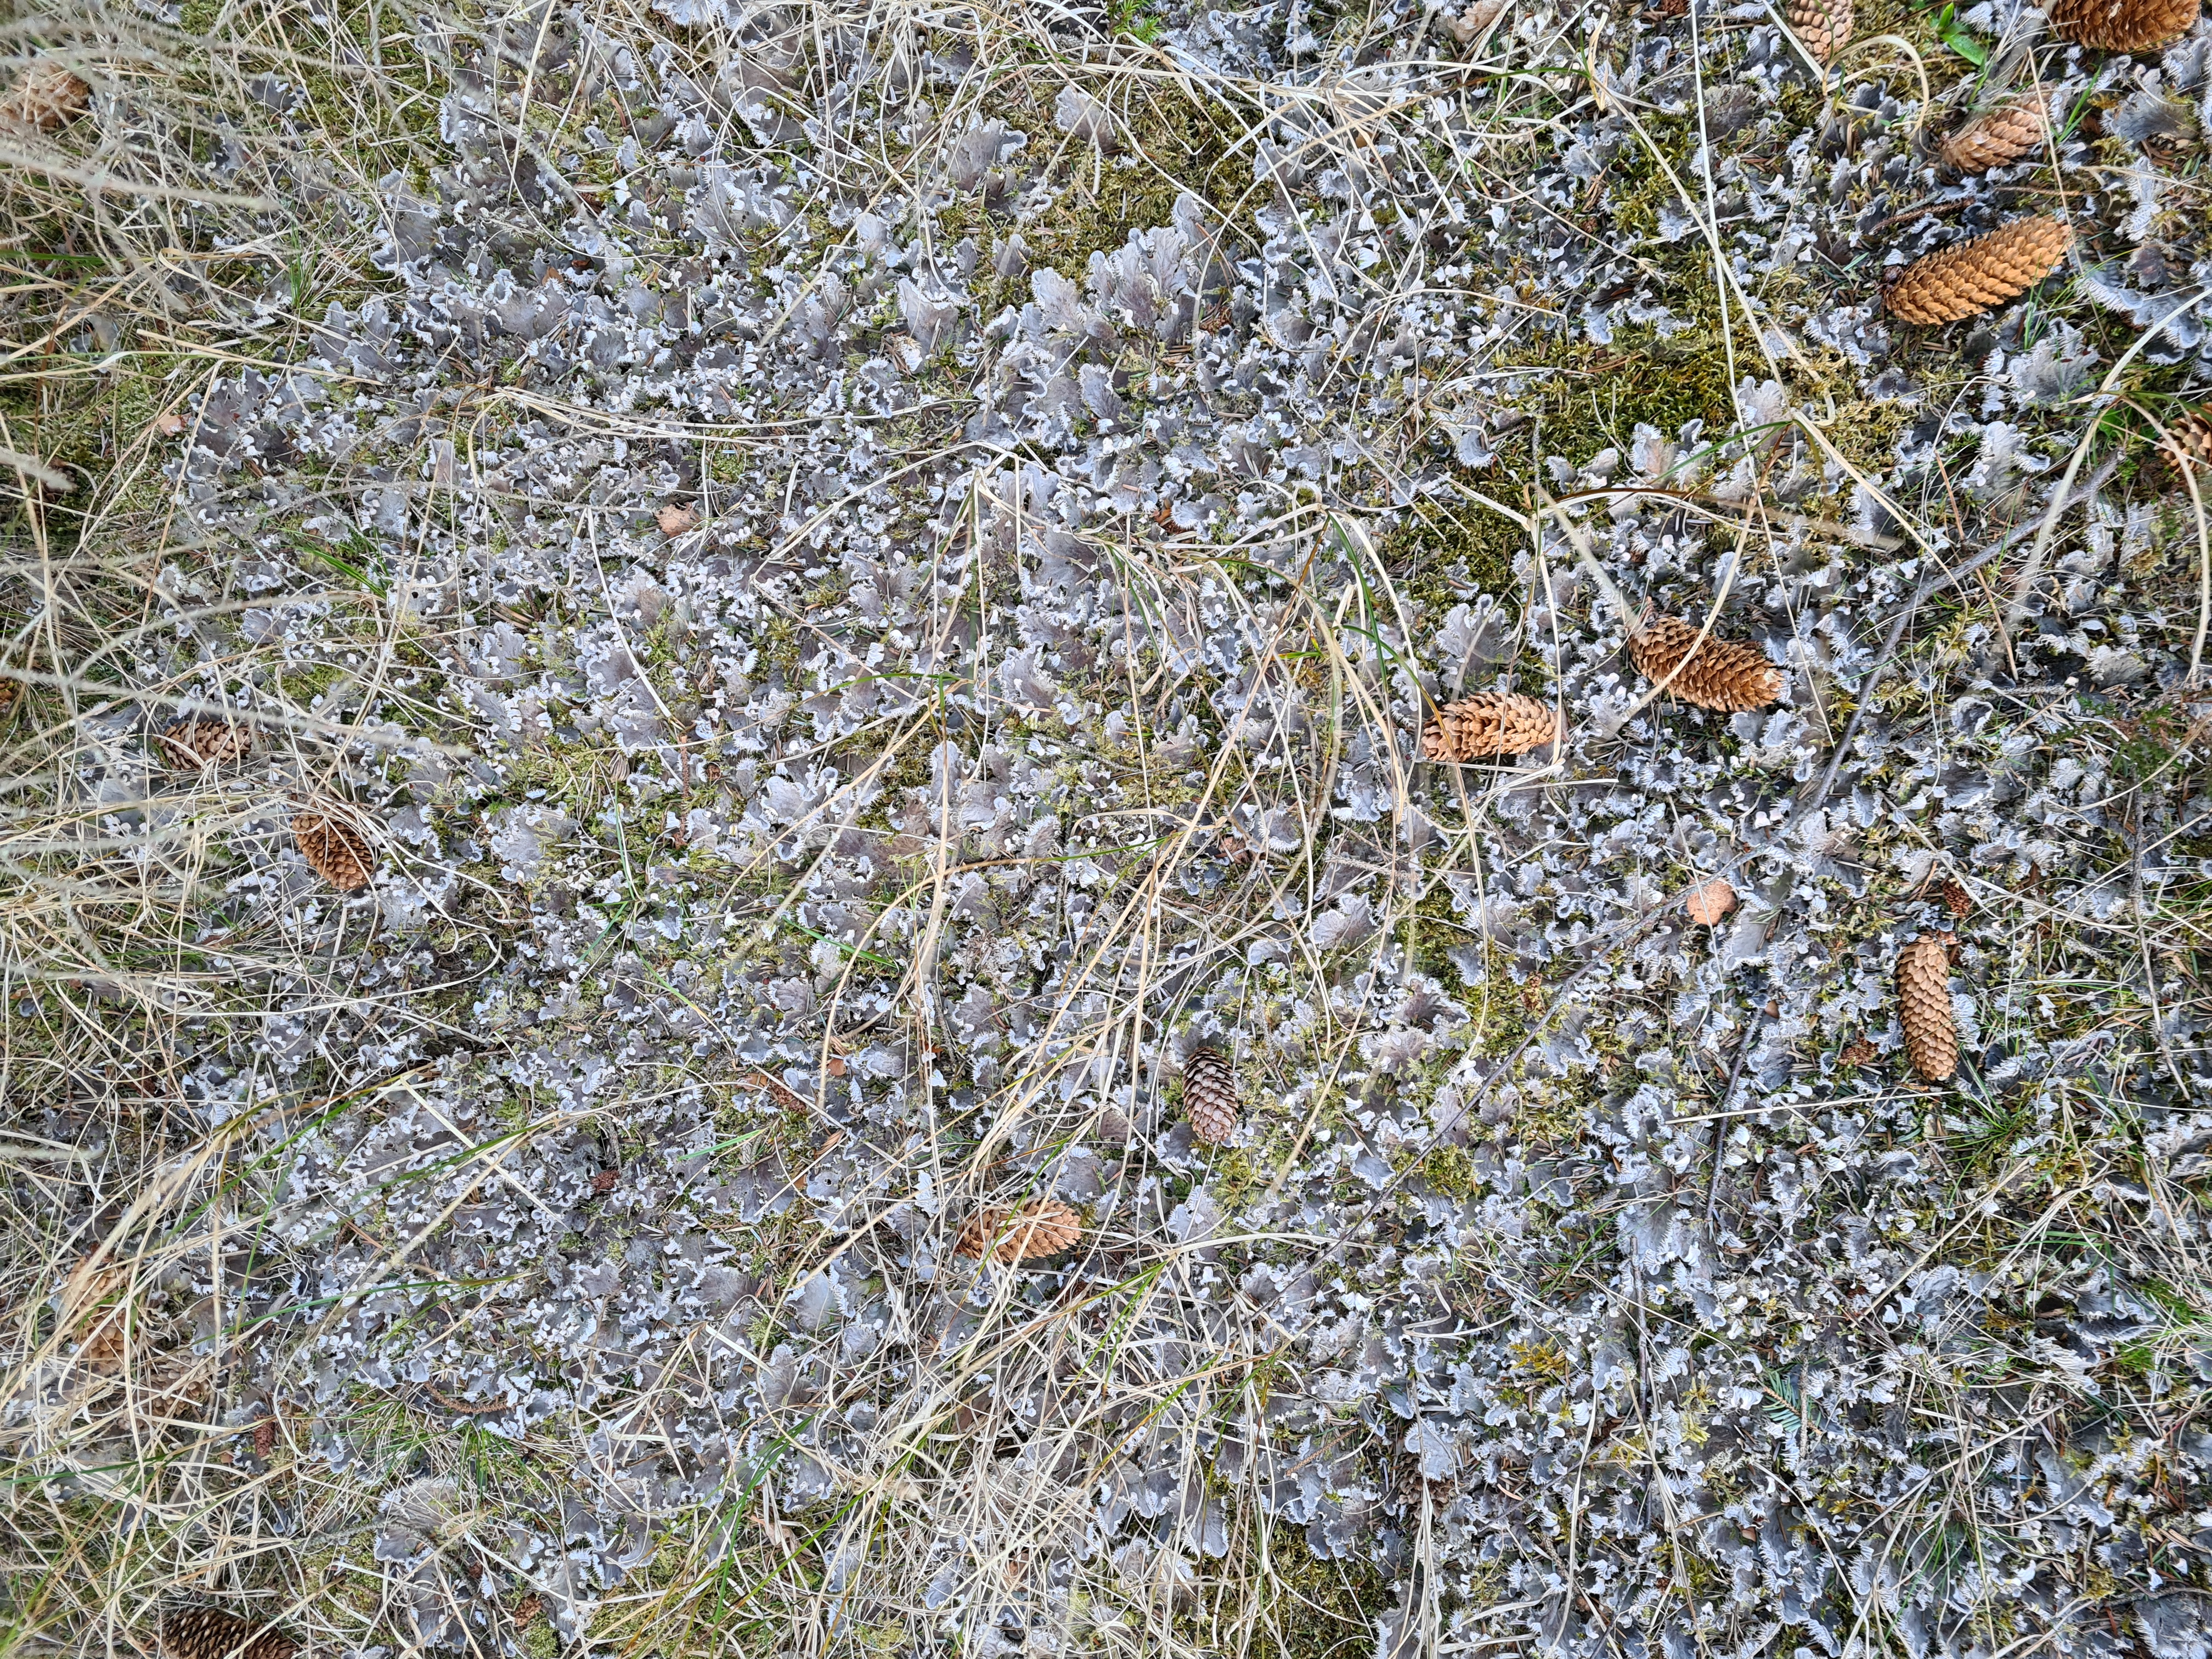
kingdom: Fungi
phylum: Ascomycota
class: Lecanoromycetes
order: Peltigerales
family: Peltigeraceae
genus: Peltigera
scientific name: Peltigera membranacea
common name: Tynd skjoldlav
